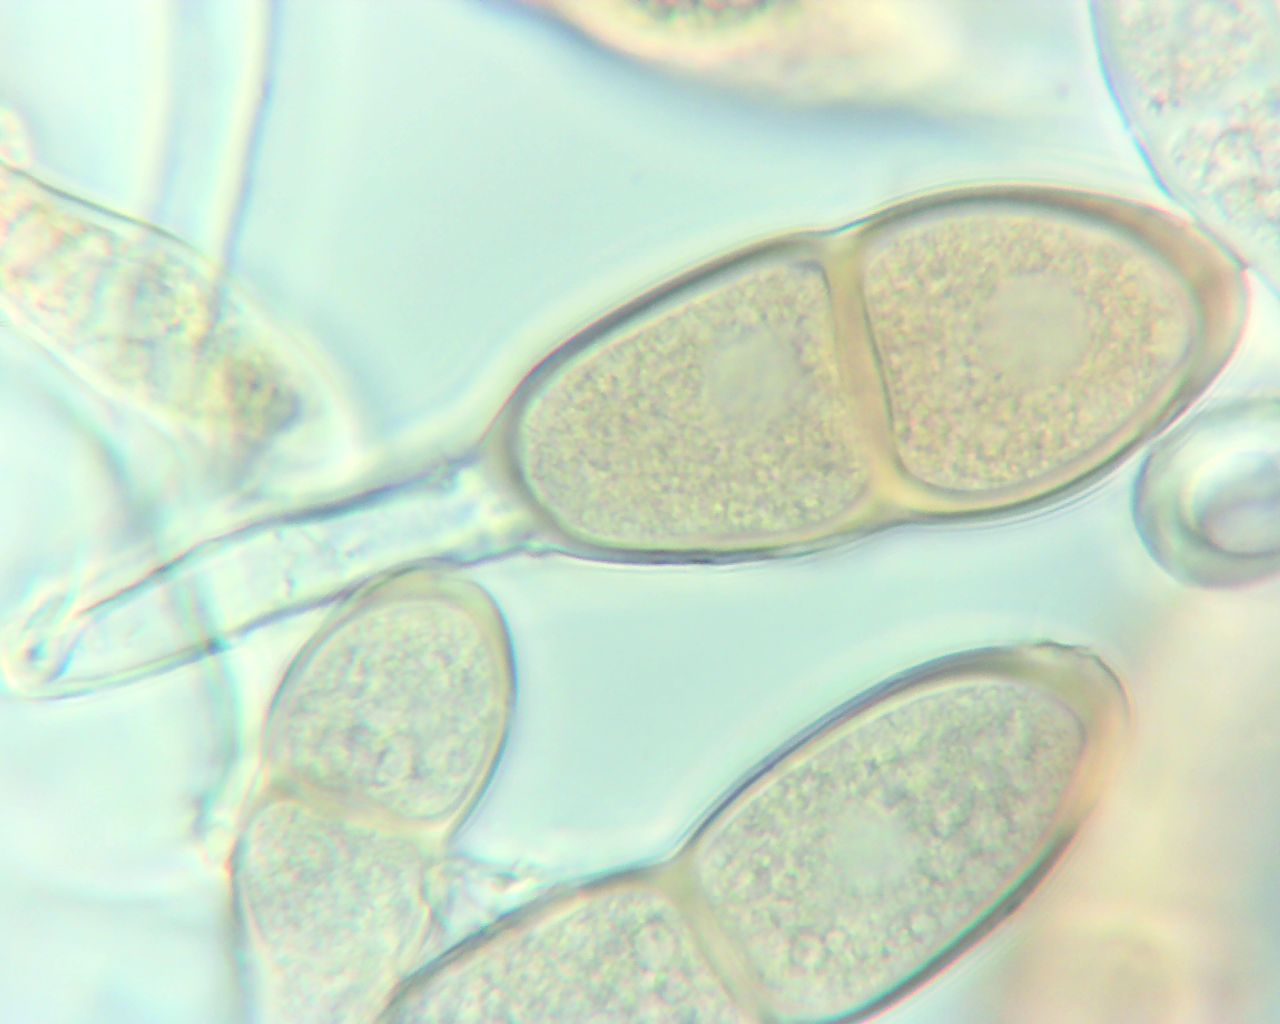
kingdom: Fungi
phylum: Basidiomycota
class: Pucciniomycetes
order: Pucciniales
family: Pucciniaceae
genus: Puccinia
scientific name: Puccinia malvacearum
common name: stokrose-tvecellerust
